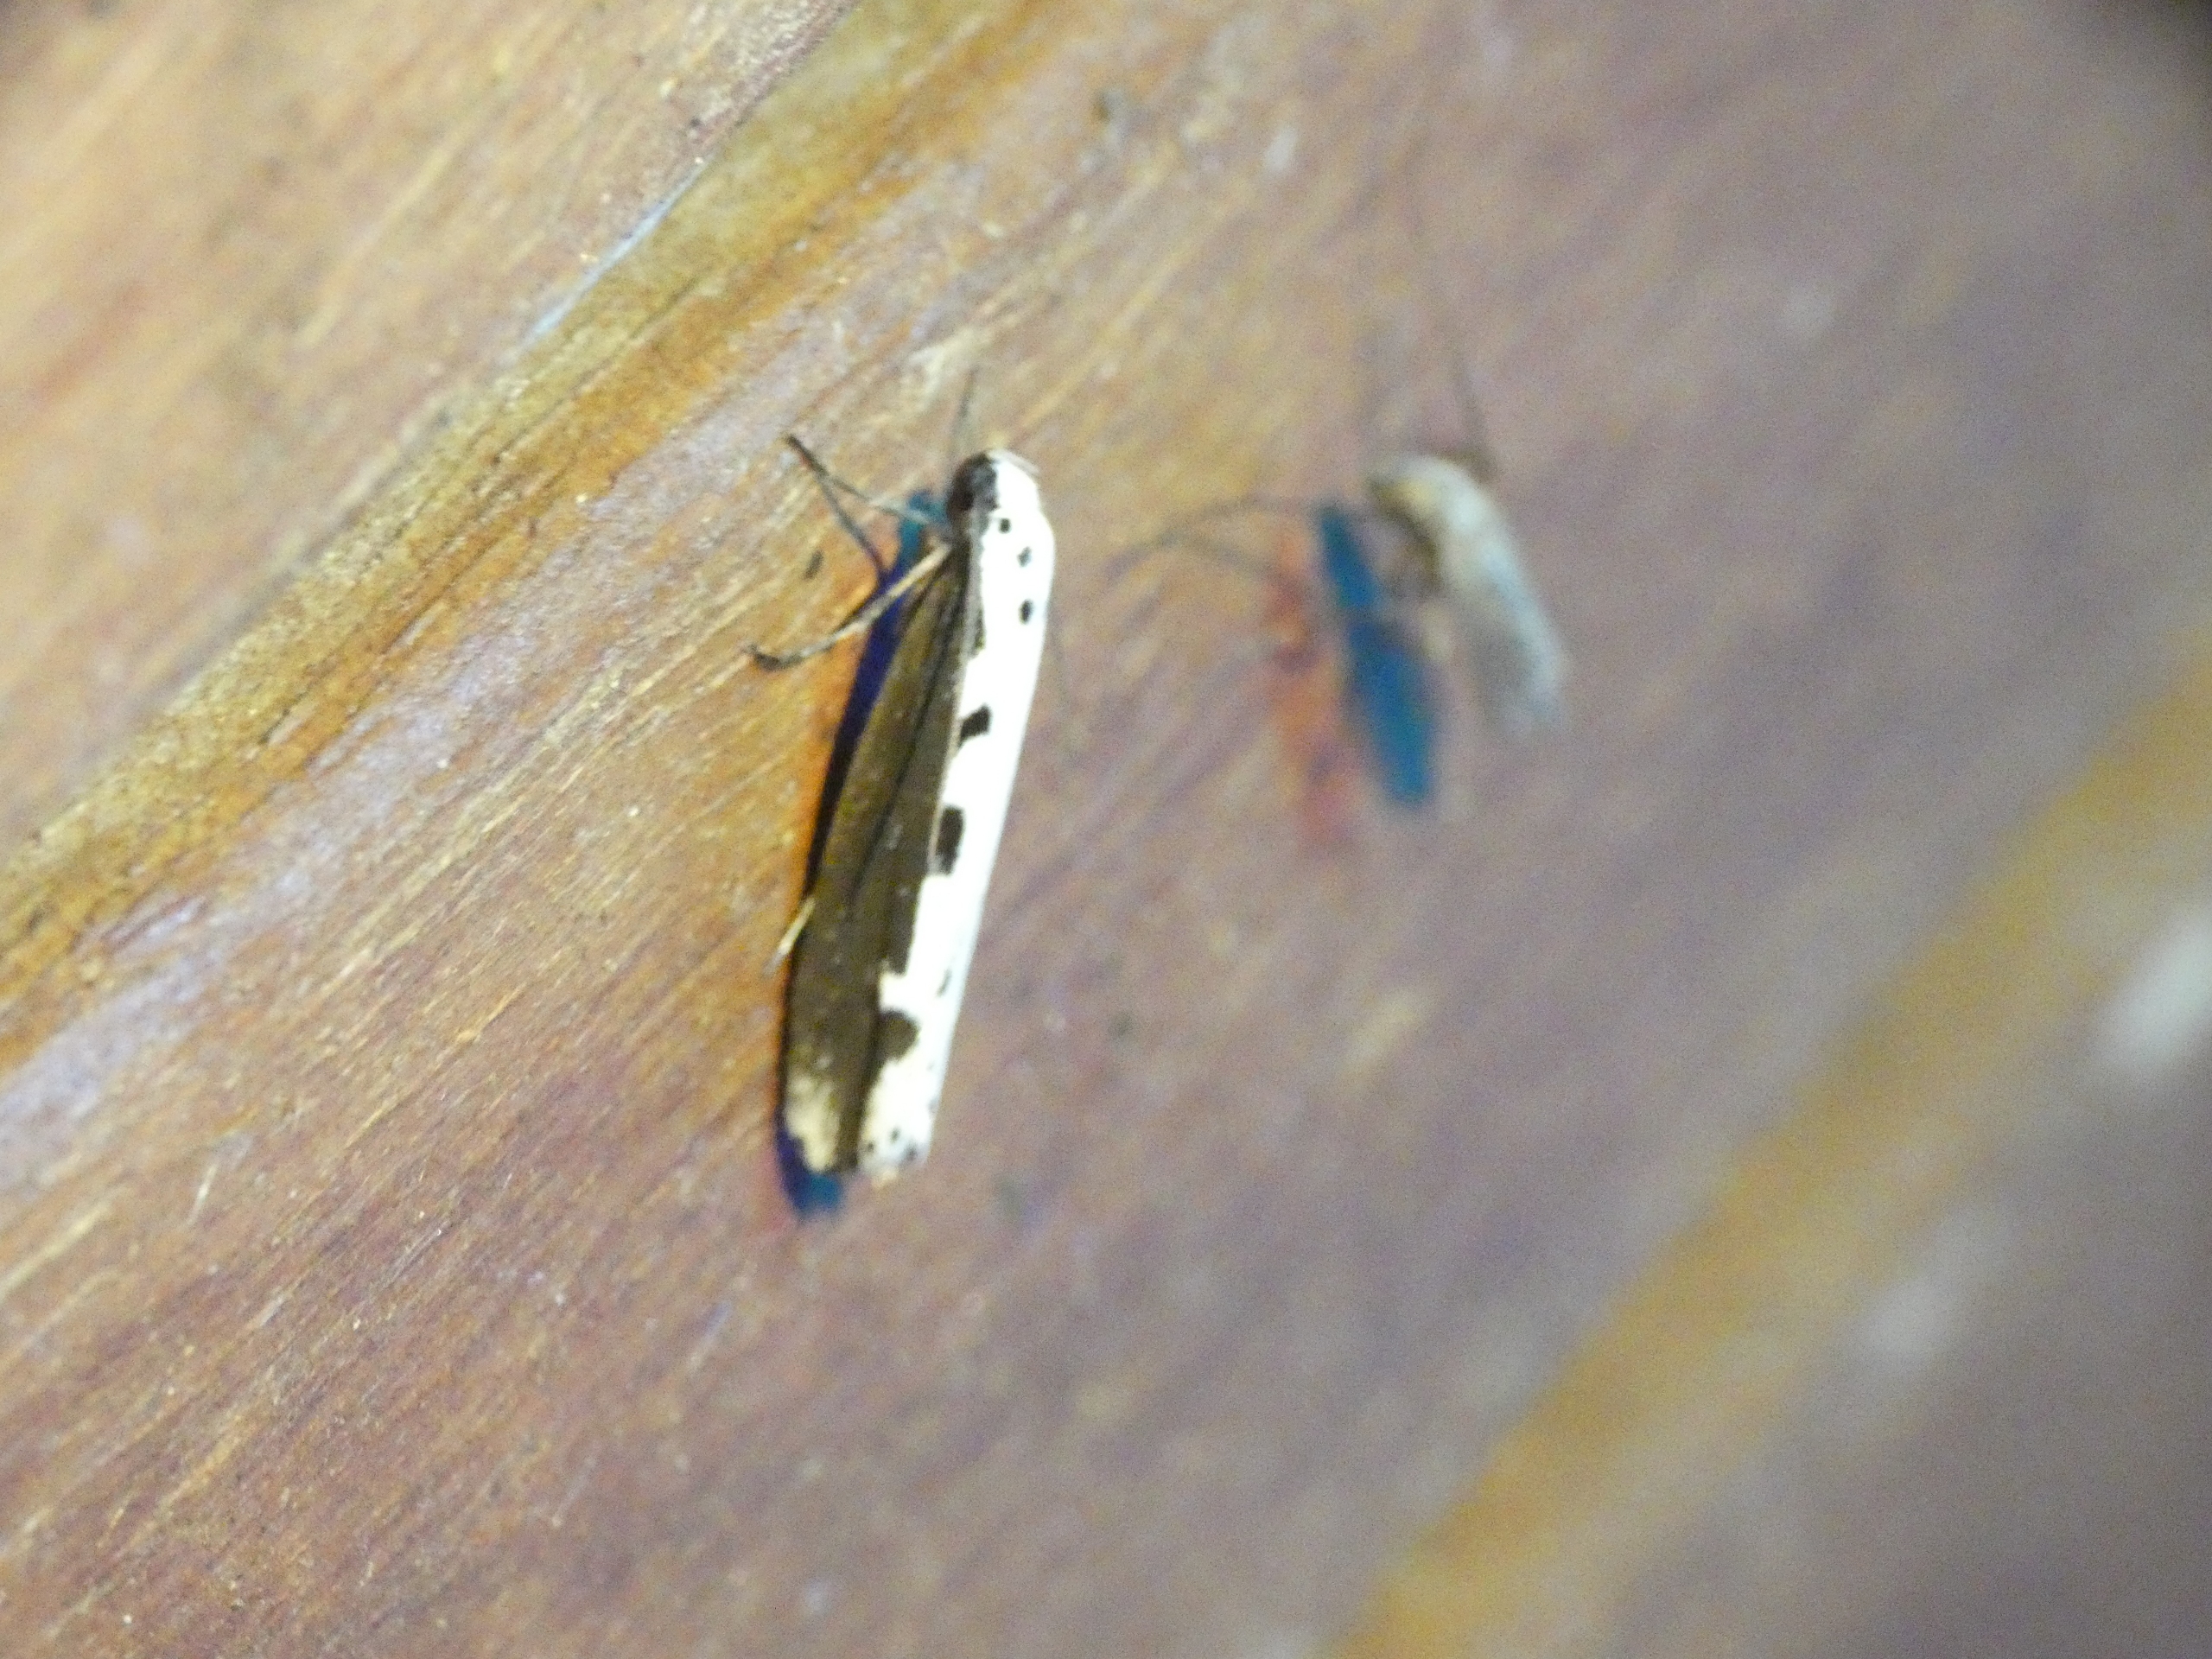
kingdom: Animalia
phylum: Arthropoda
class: Insecta
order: Lepidoptera
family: Ethmiidae
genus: Ethmia
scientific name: Ethmia bipunctella
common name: Slangehovedmøl
